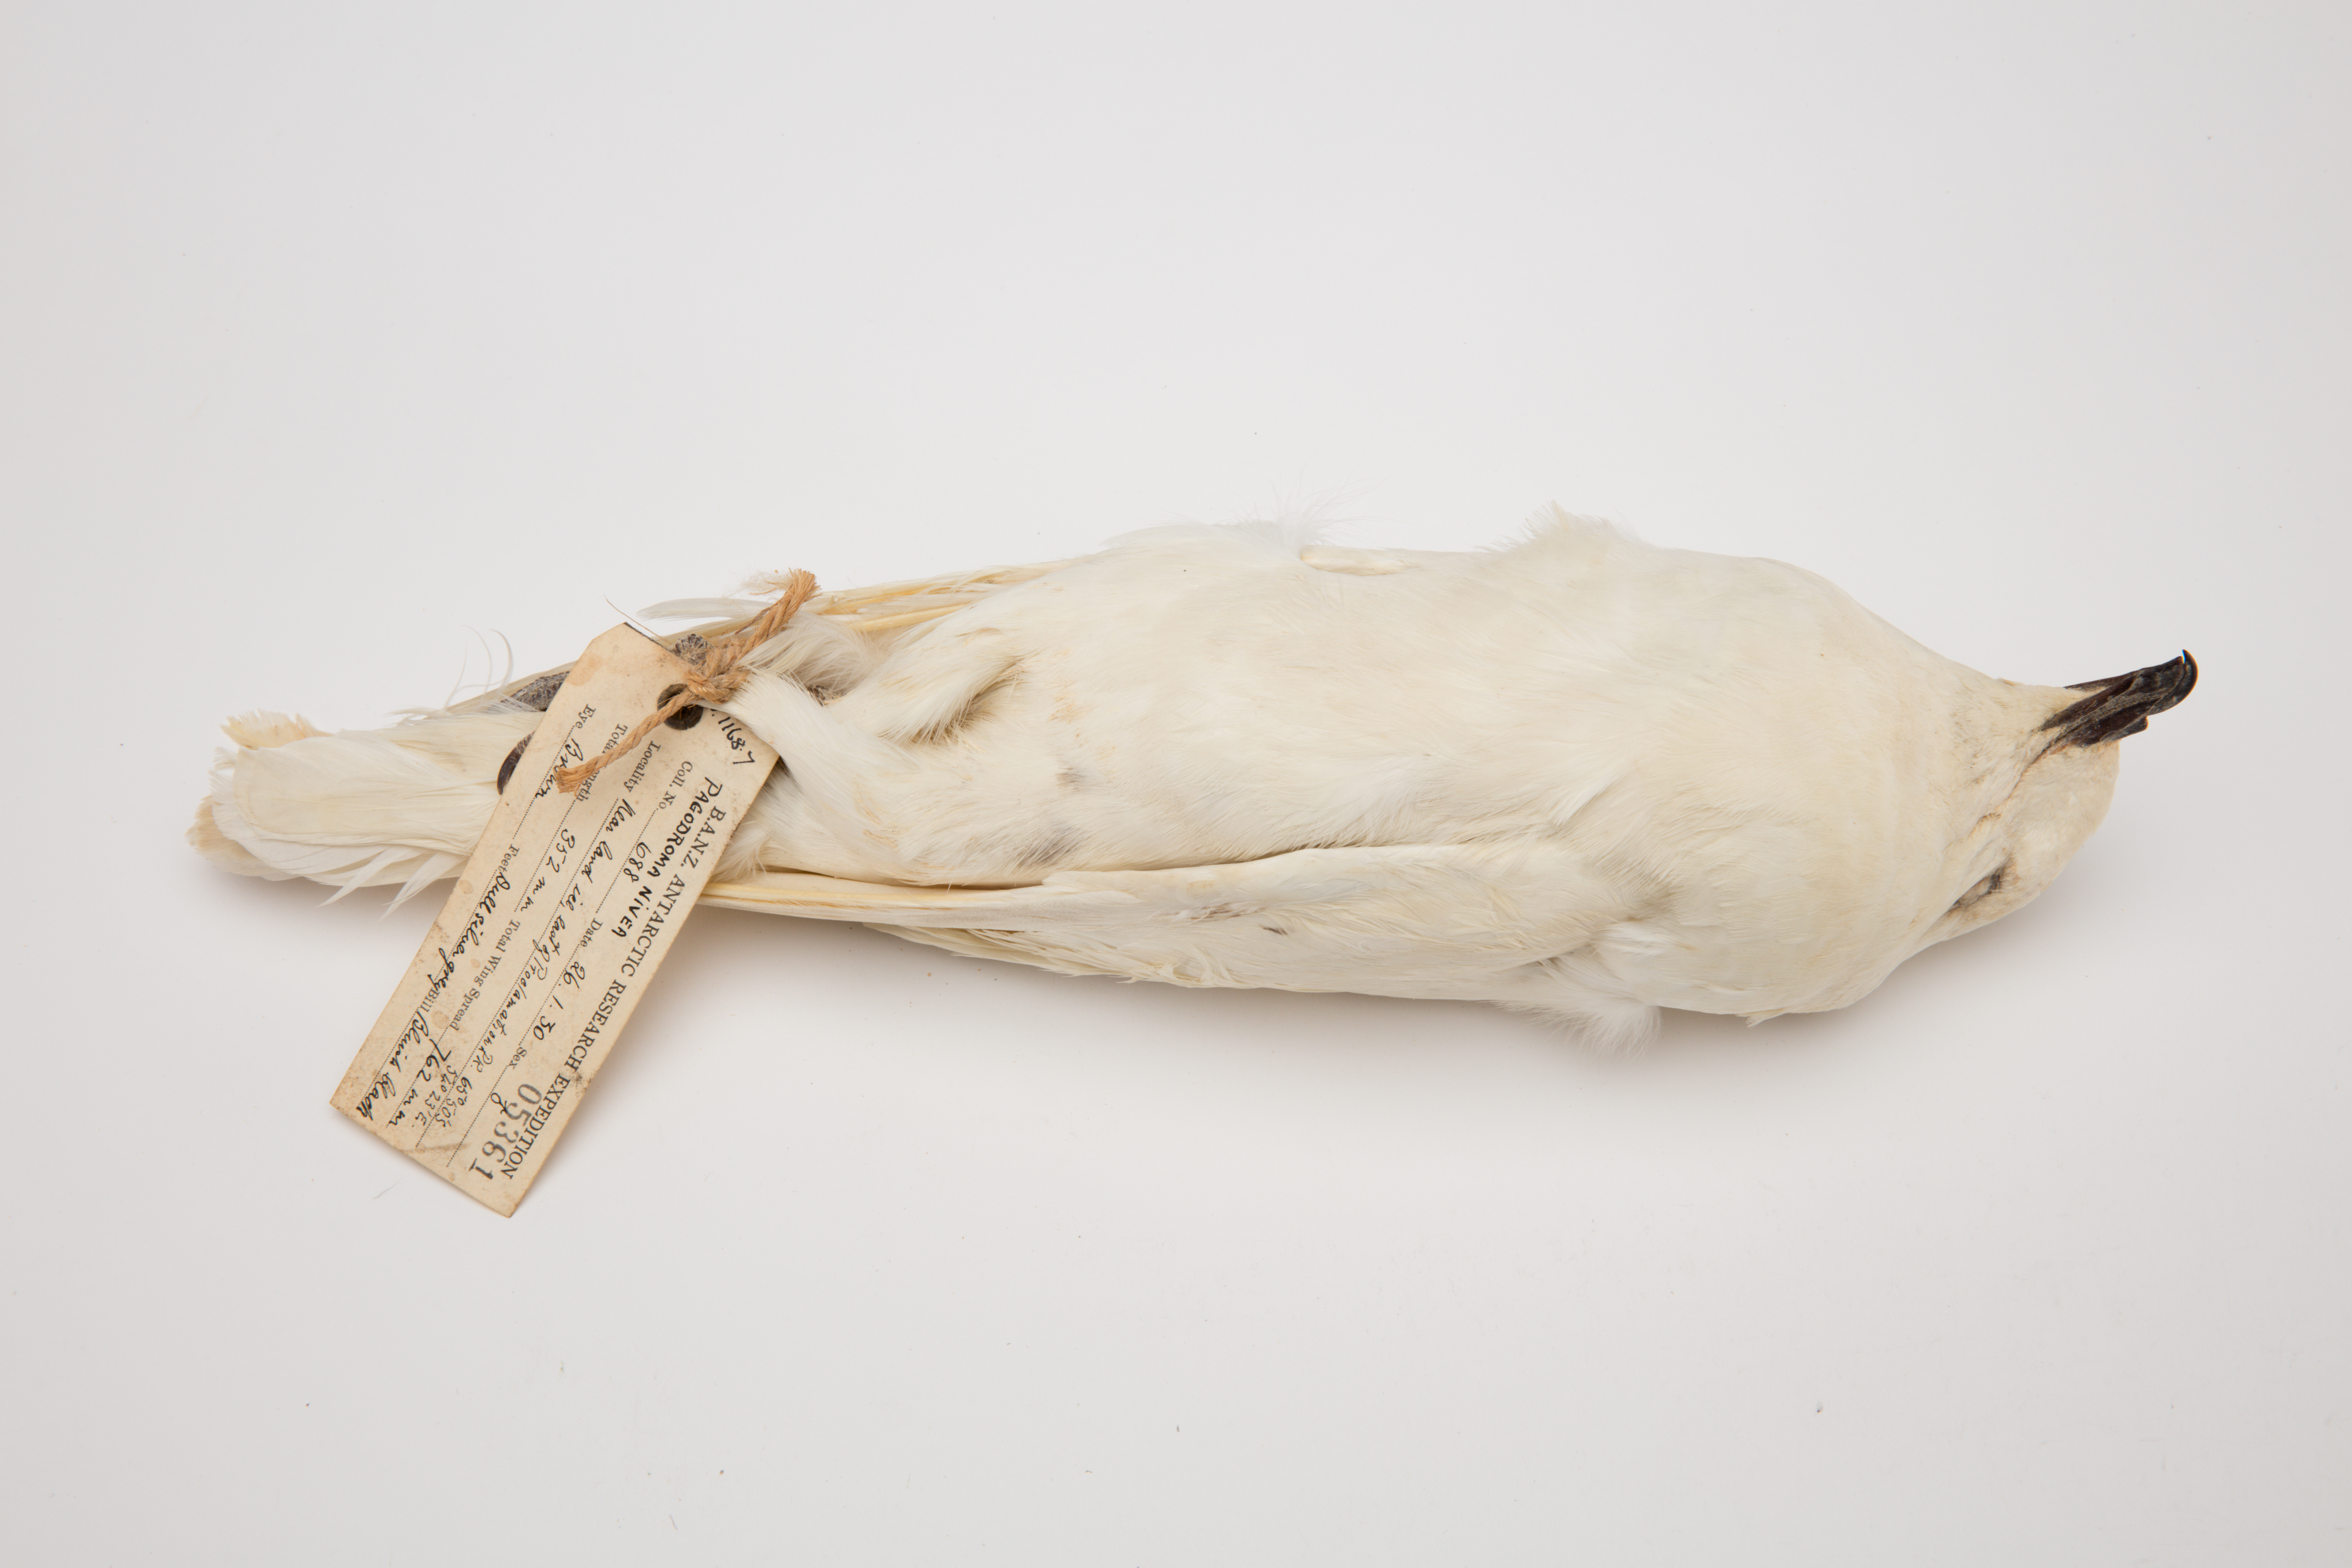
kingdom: Animalia
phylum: Chordata
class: Aves
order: Procellariiformes
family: Procellariidae
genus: Pagodroma
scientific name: Pagodroma nivea
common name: Snow petrel
